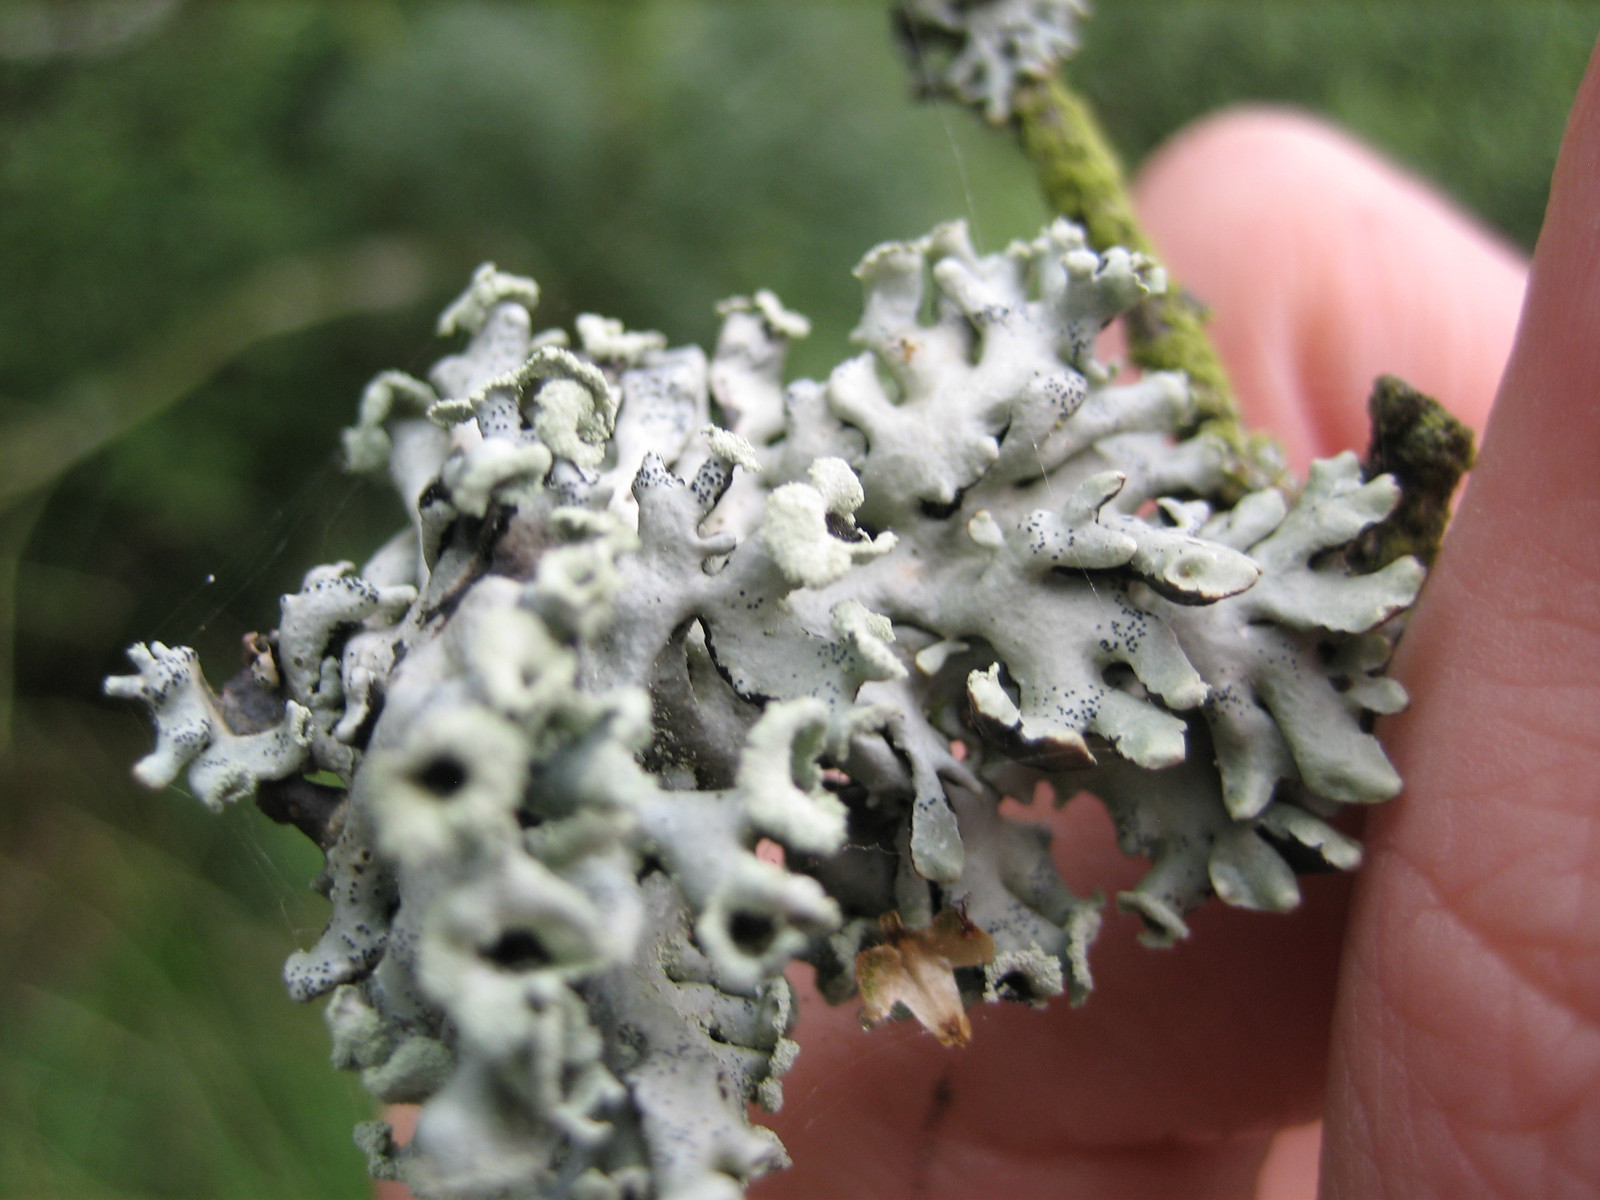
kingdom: Fungi
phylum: Ascomycota
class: Lecanoromycetes
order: Lecanorales
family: Parmeliaceae
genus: Hypogymnia
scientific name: Hypogymnia physodes
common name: almindelig kvistlav
